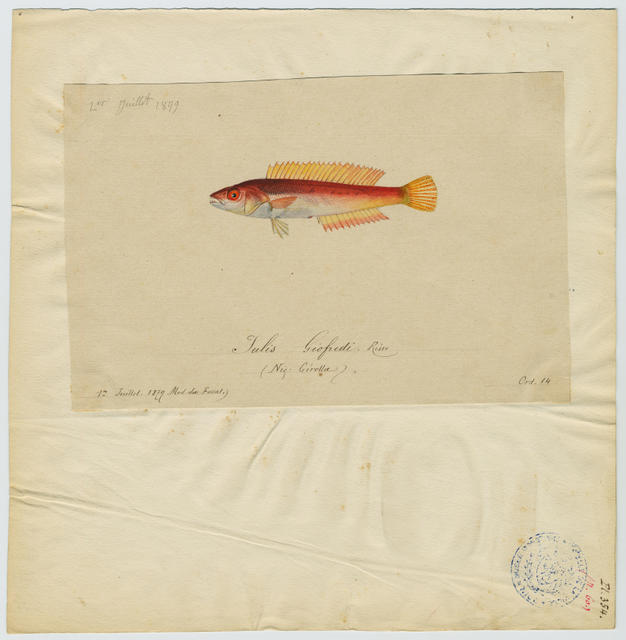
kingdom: Animalia
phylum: Chordata
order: Perciformes
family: Labridae
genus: Coris
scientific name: Coris julis
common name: Rainbow wrasse
